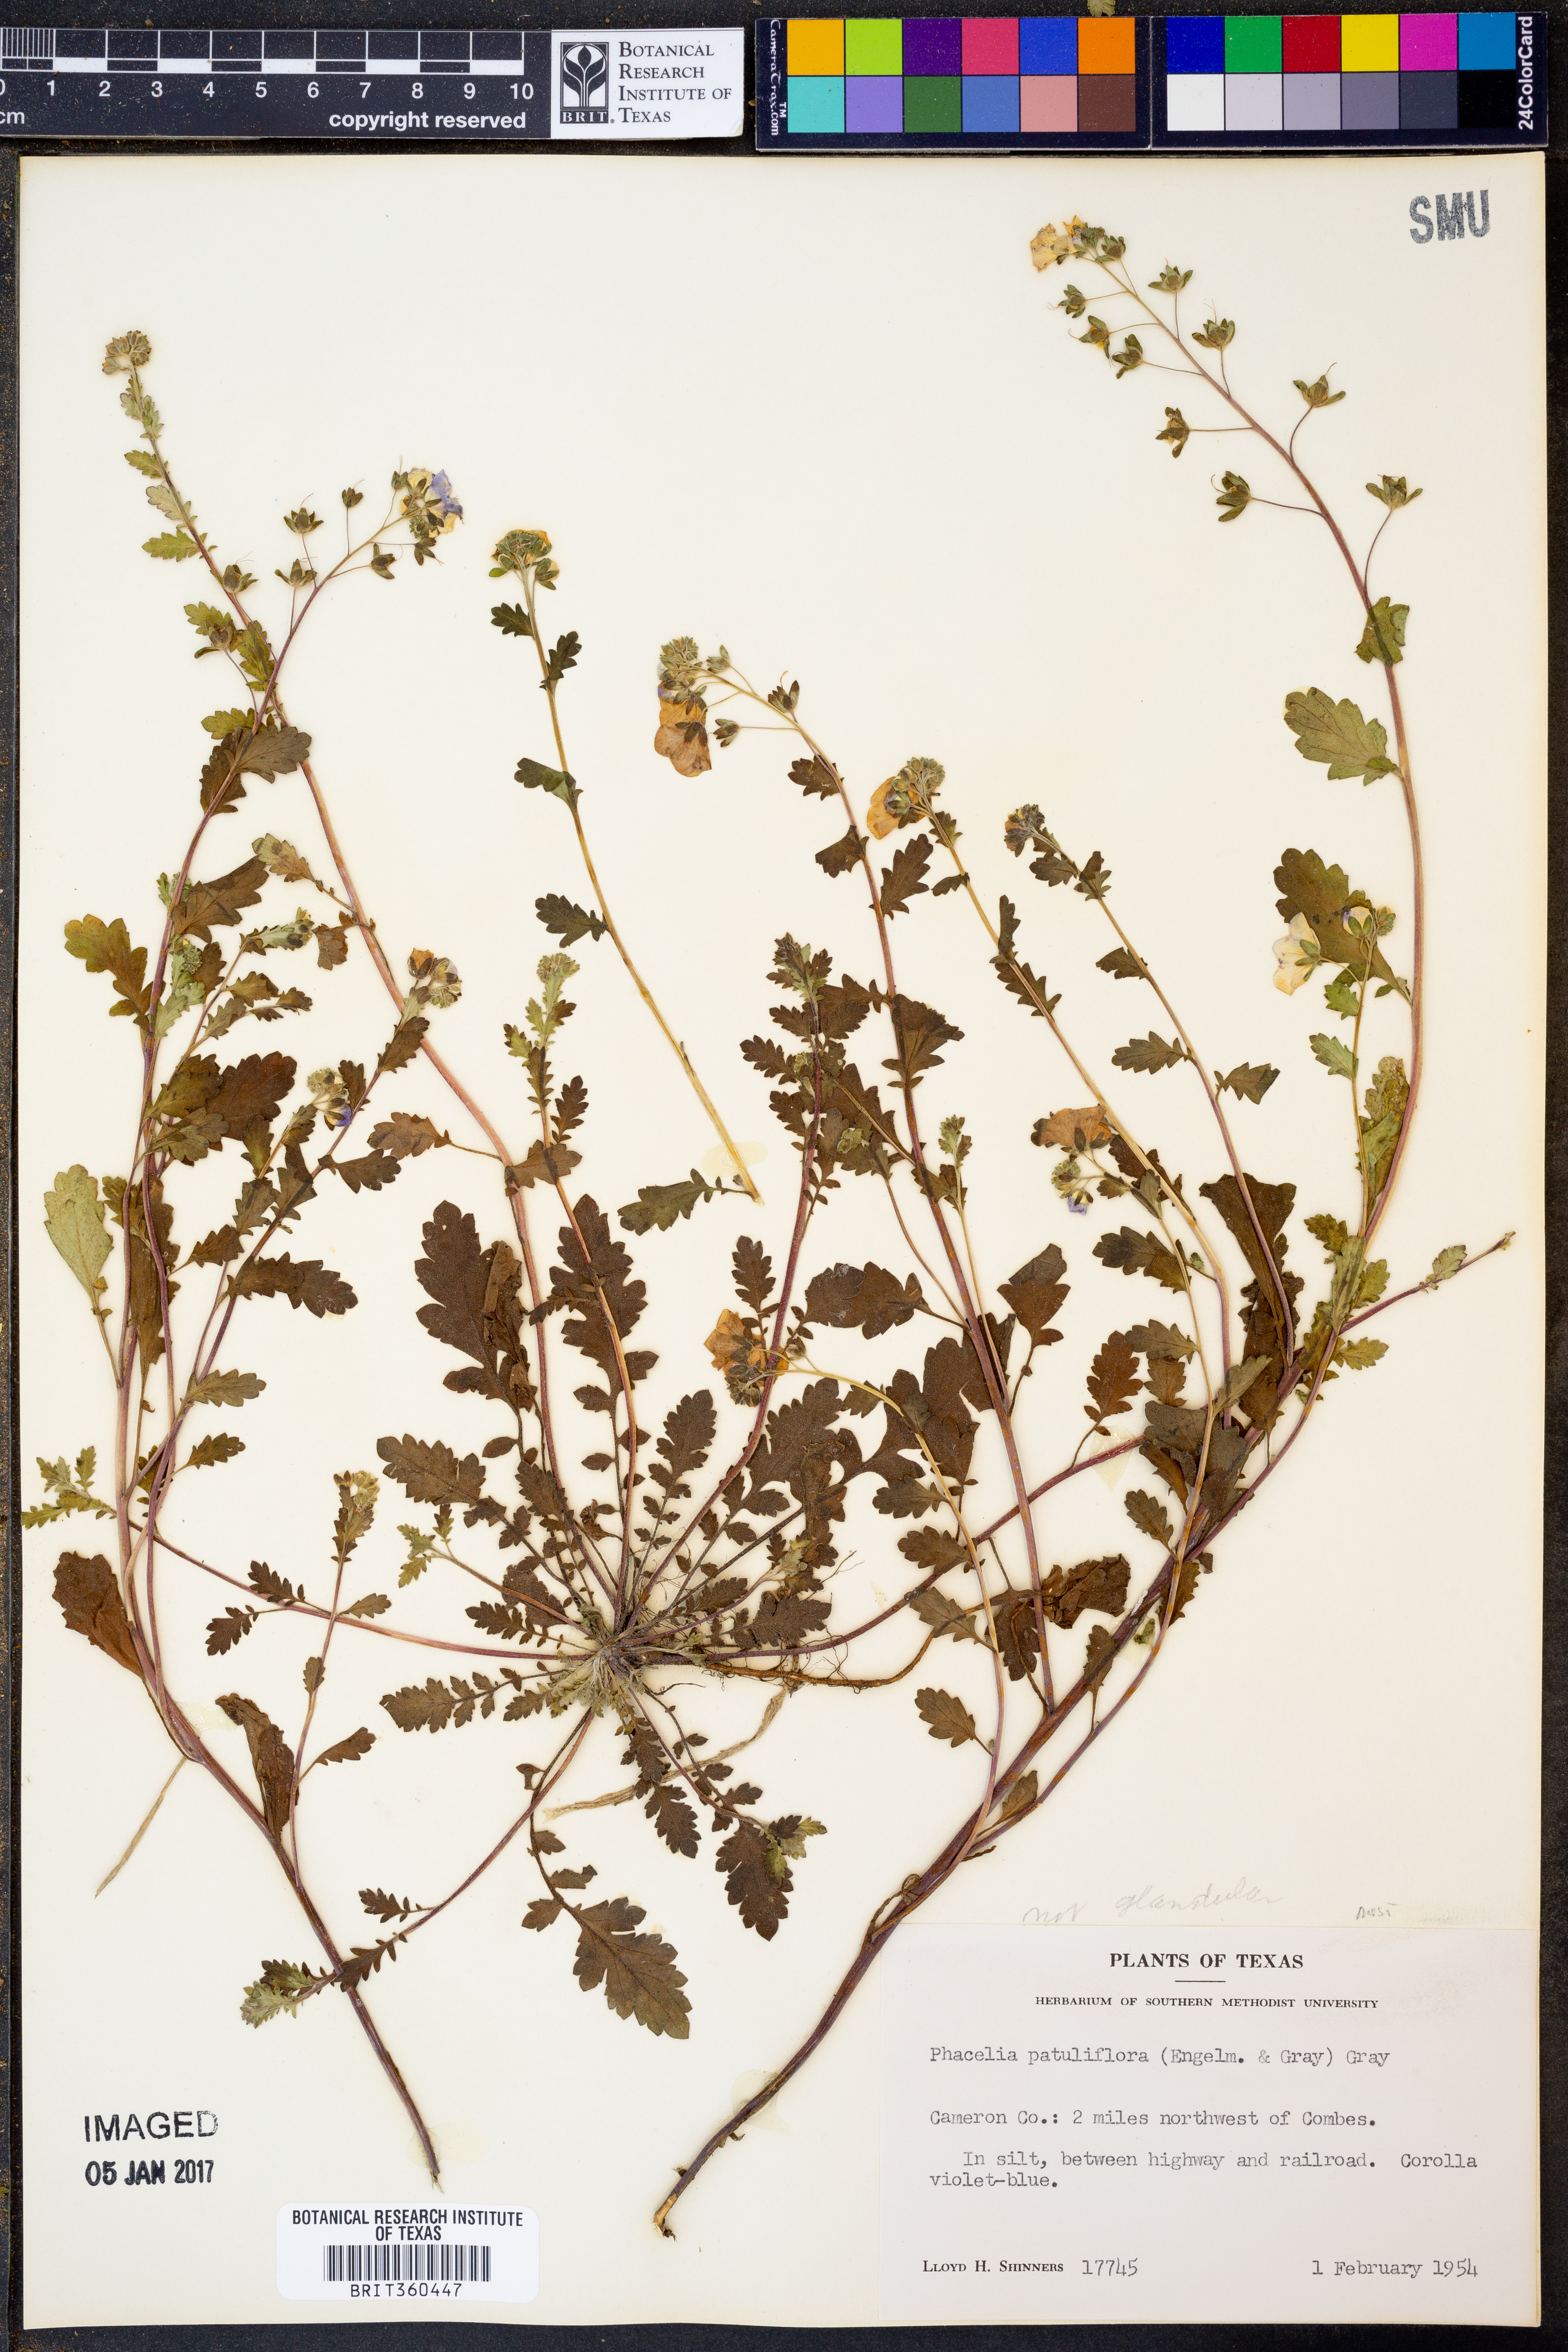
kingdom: Plantae
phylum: Tracheophyta
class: Magnoliopsida
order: Boraginales
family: Hydrophyllaceae
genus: Phacelia
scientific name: Phacelia patuliflora
